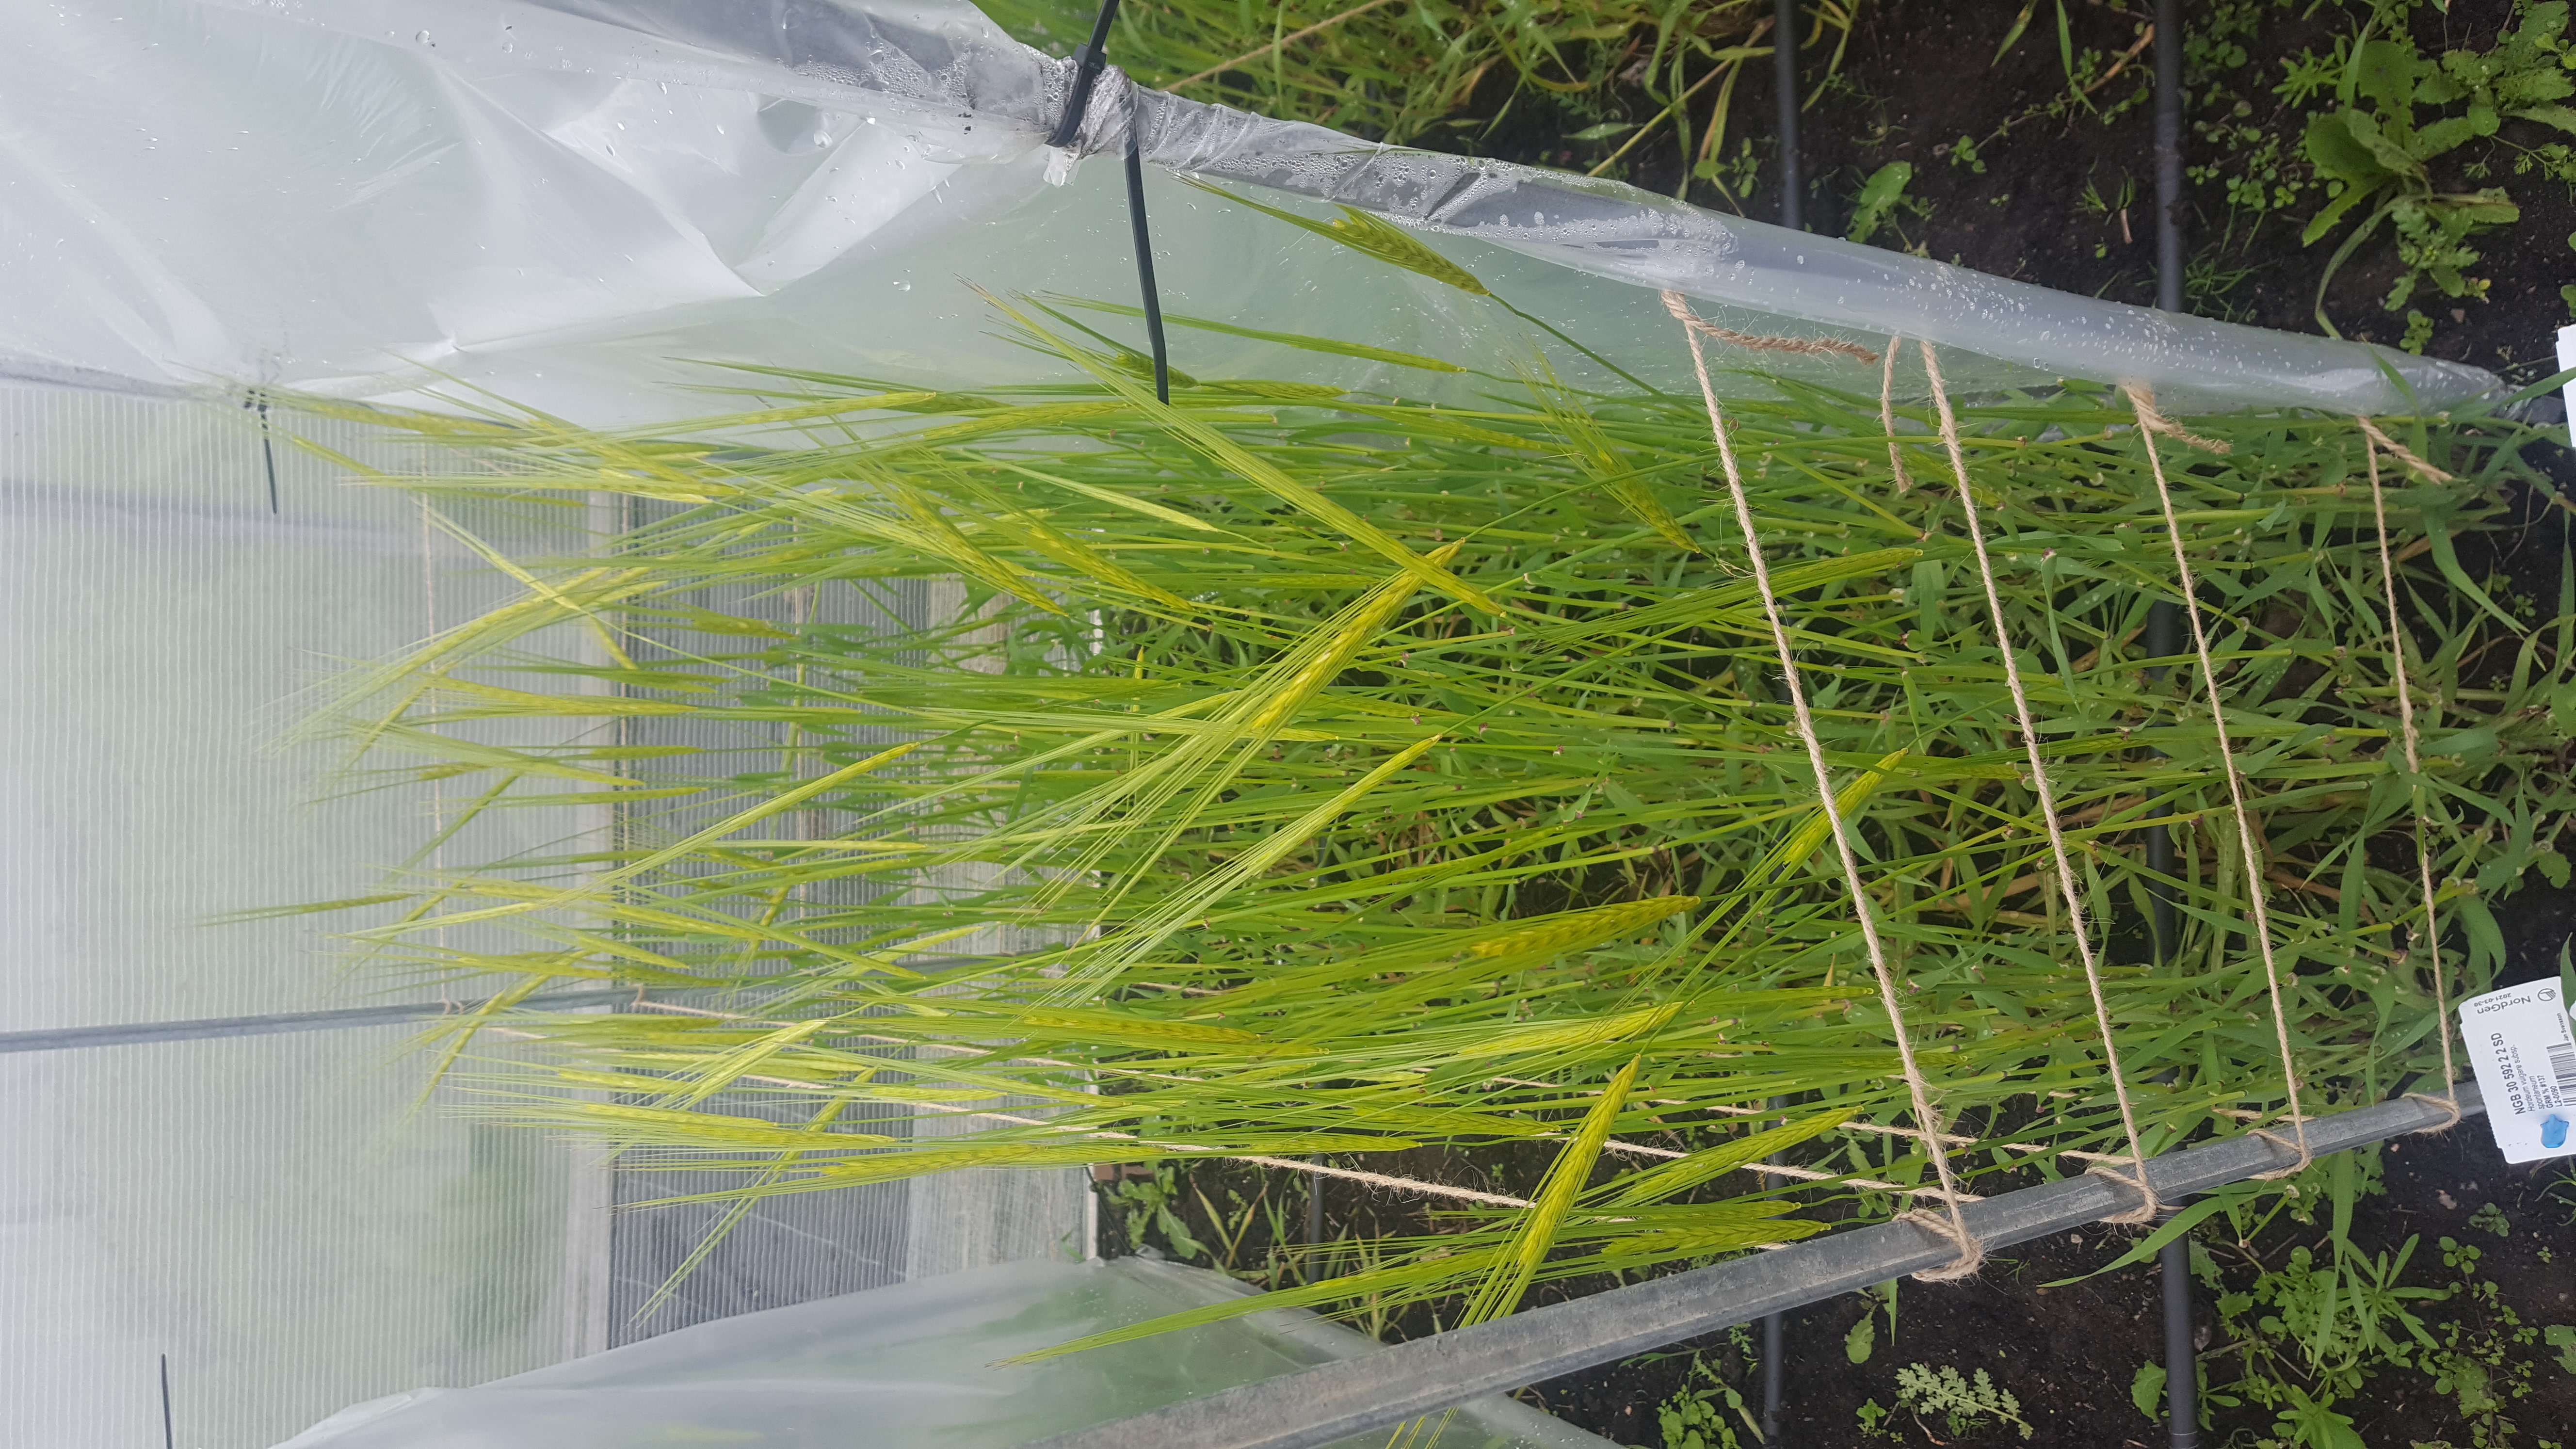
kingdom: Plantae
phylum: Tracheophyta
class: Liliopsida
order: Poales
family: Poaceae
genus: Hordeum
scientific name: Hordeum spontaneum
